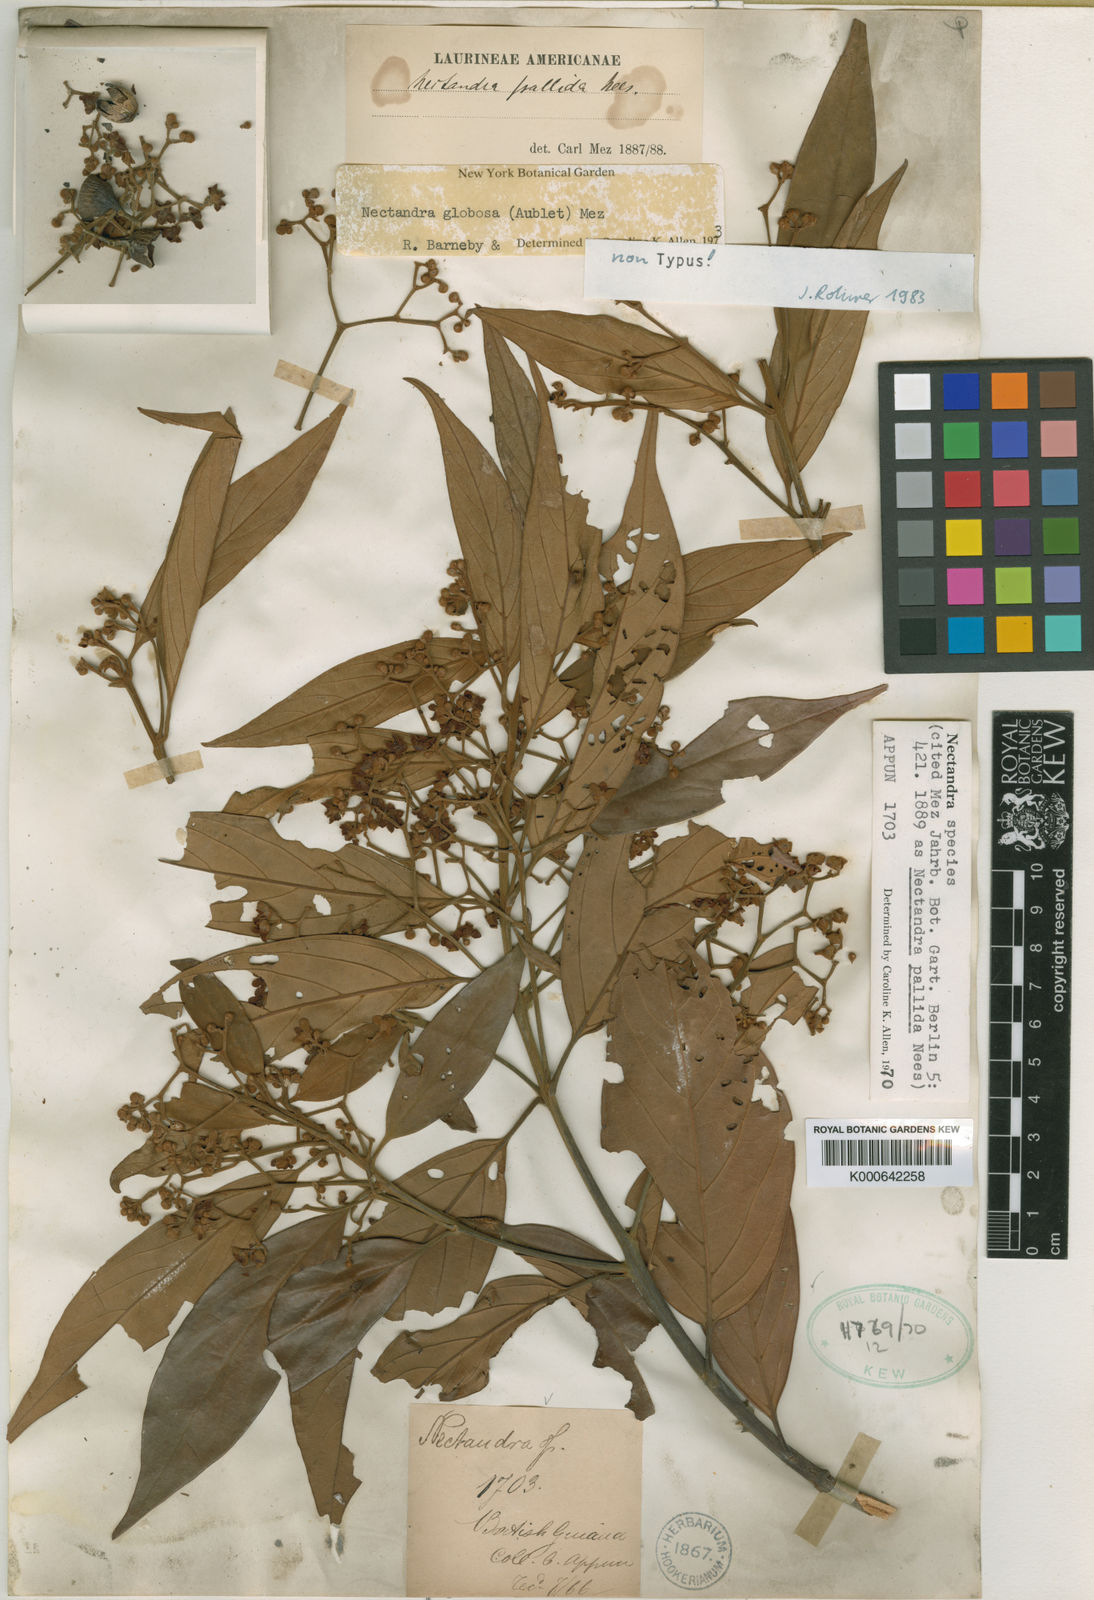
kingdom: Plantae
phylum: Tracheophyta
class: Magnoliopsida
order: Laurales
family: Lauraceae
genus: Nectandra
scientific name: Nectandra amazonum
